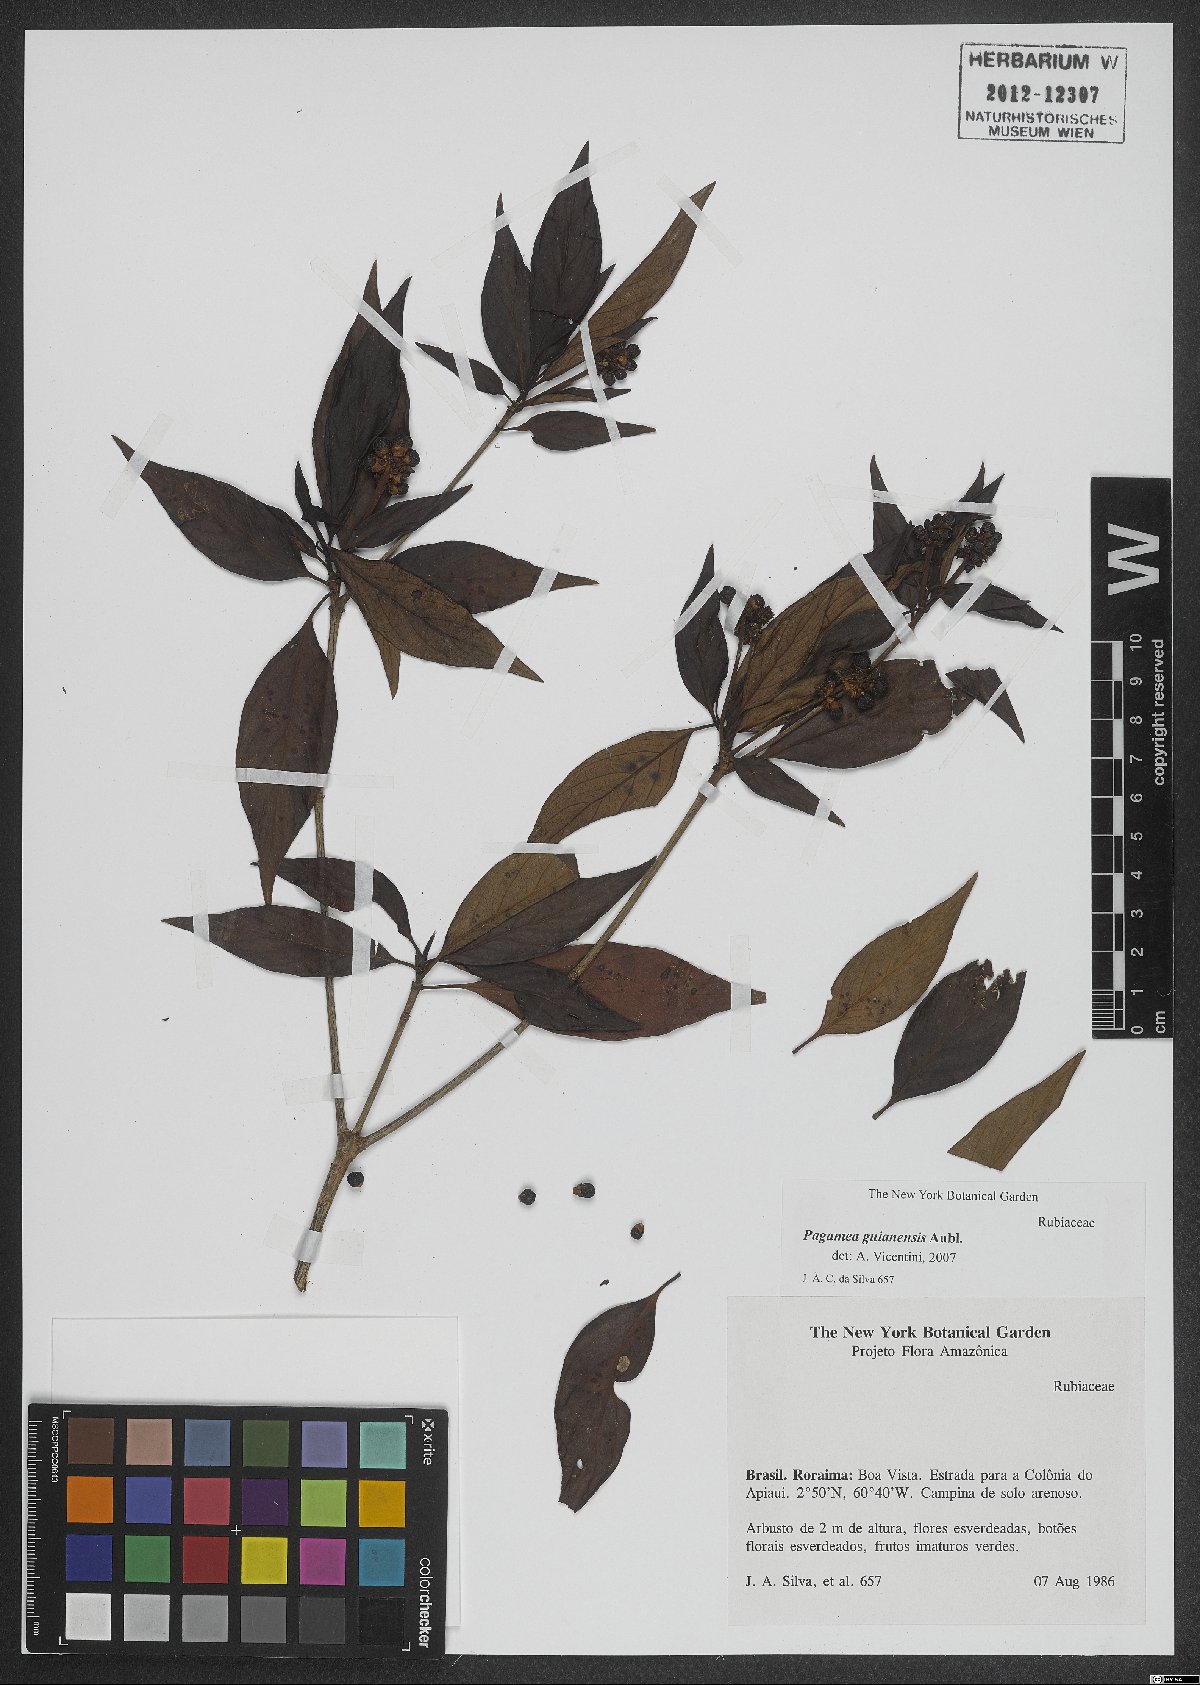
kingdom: Plantae
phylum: Tracheophyta
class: Magnoliopsida
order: Gentianales
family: Rubiaceae
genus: Pagamea
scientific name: Pagamea guianensis
